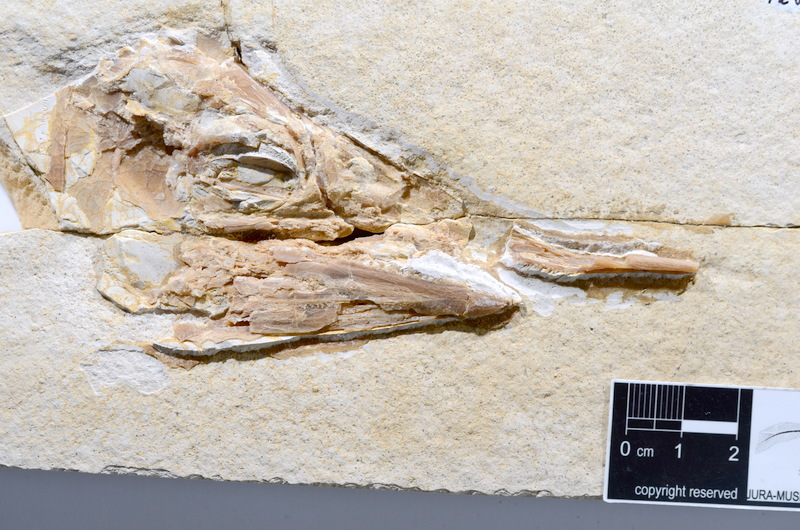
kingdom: Animalia
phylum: Chordata
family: Aspidorhynchidae
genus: Aspidorhynchus
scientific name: Aspidorhynchus acutirostris
